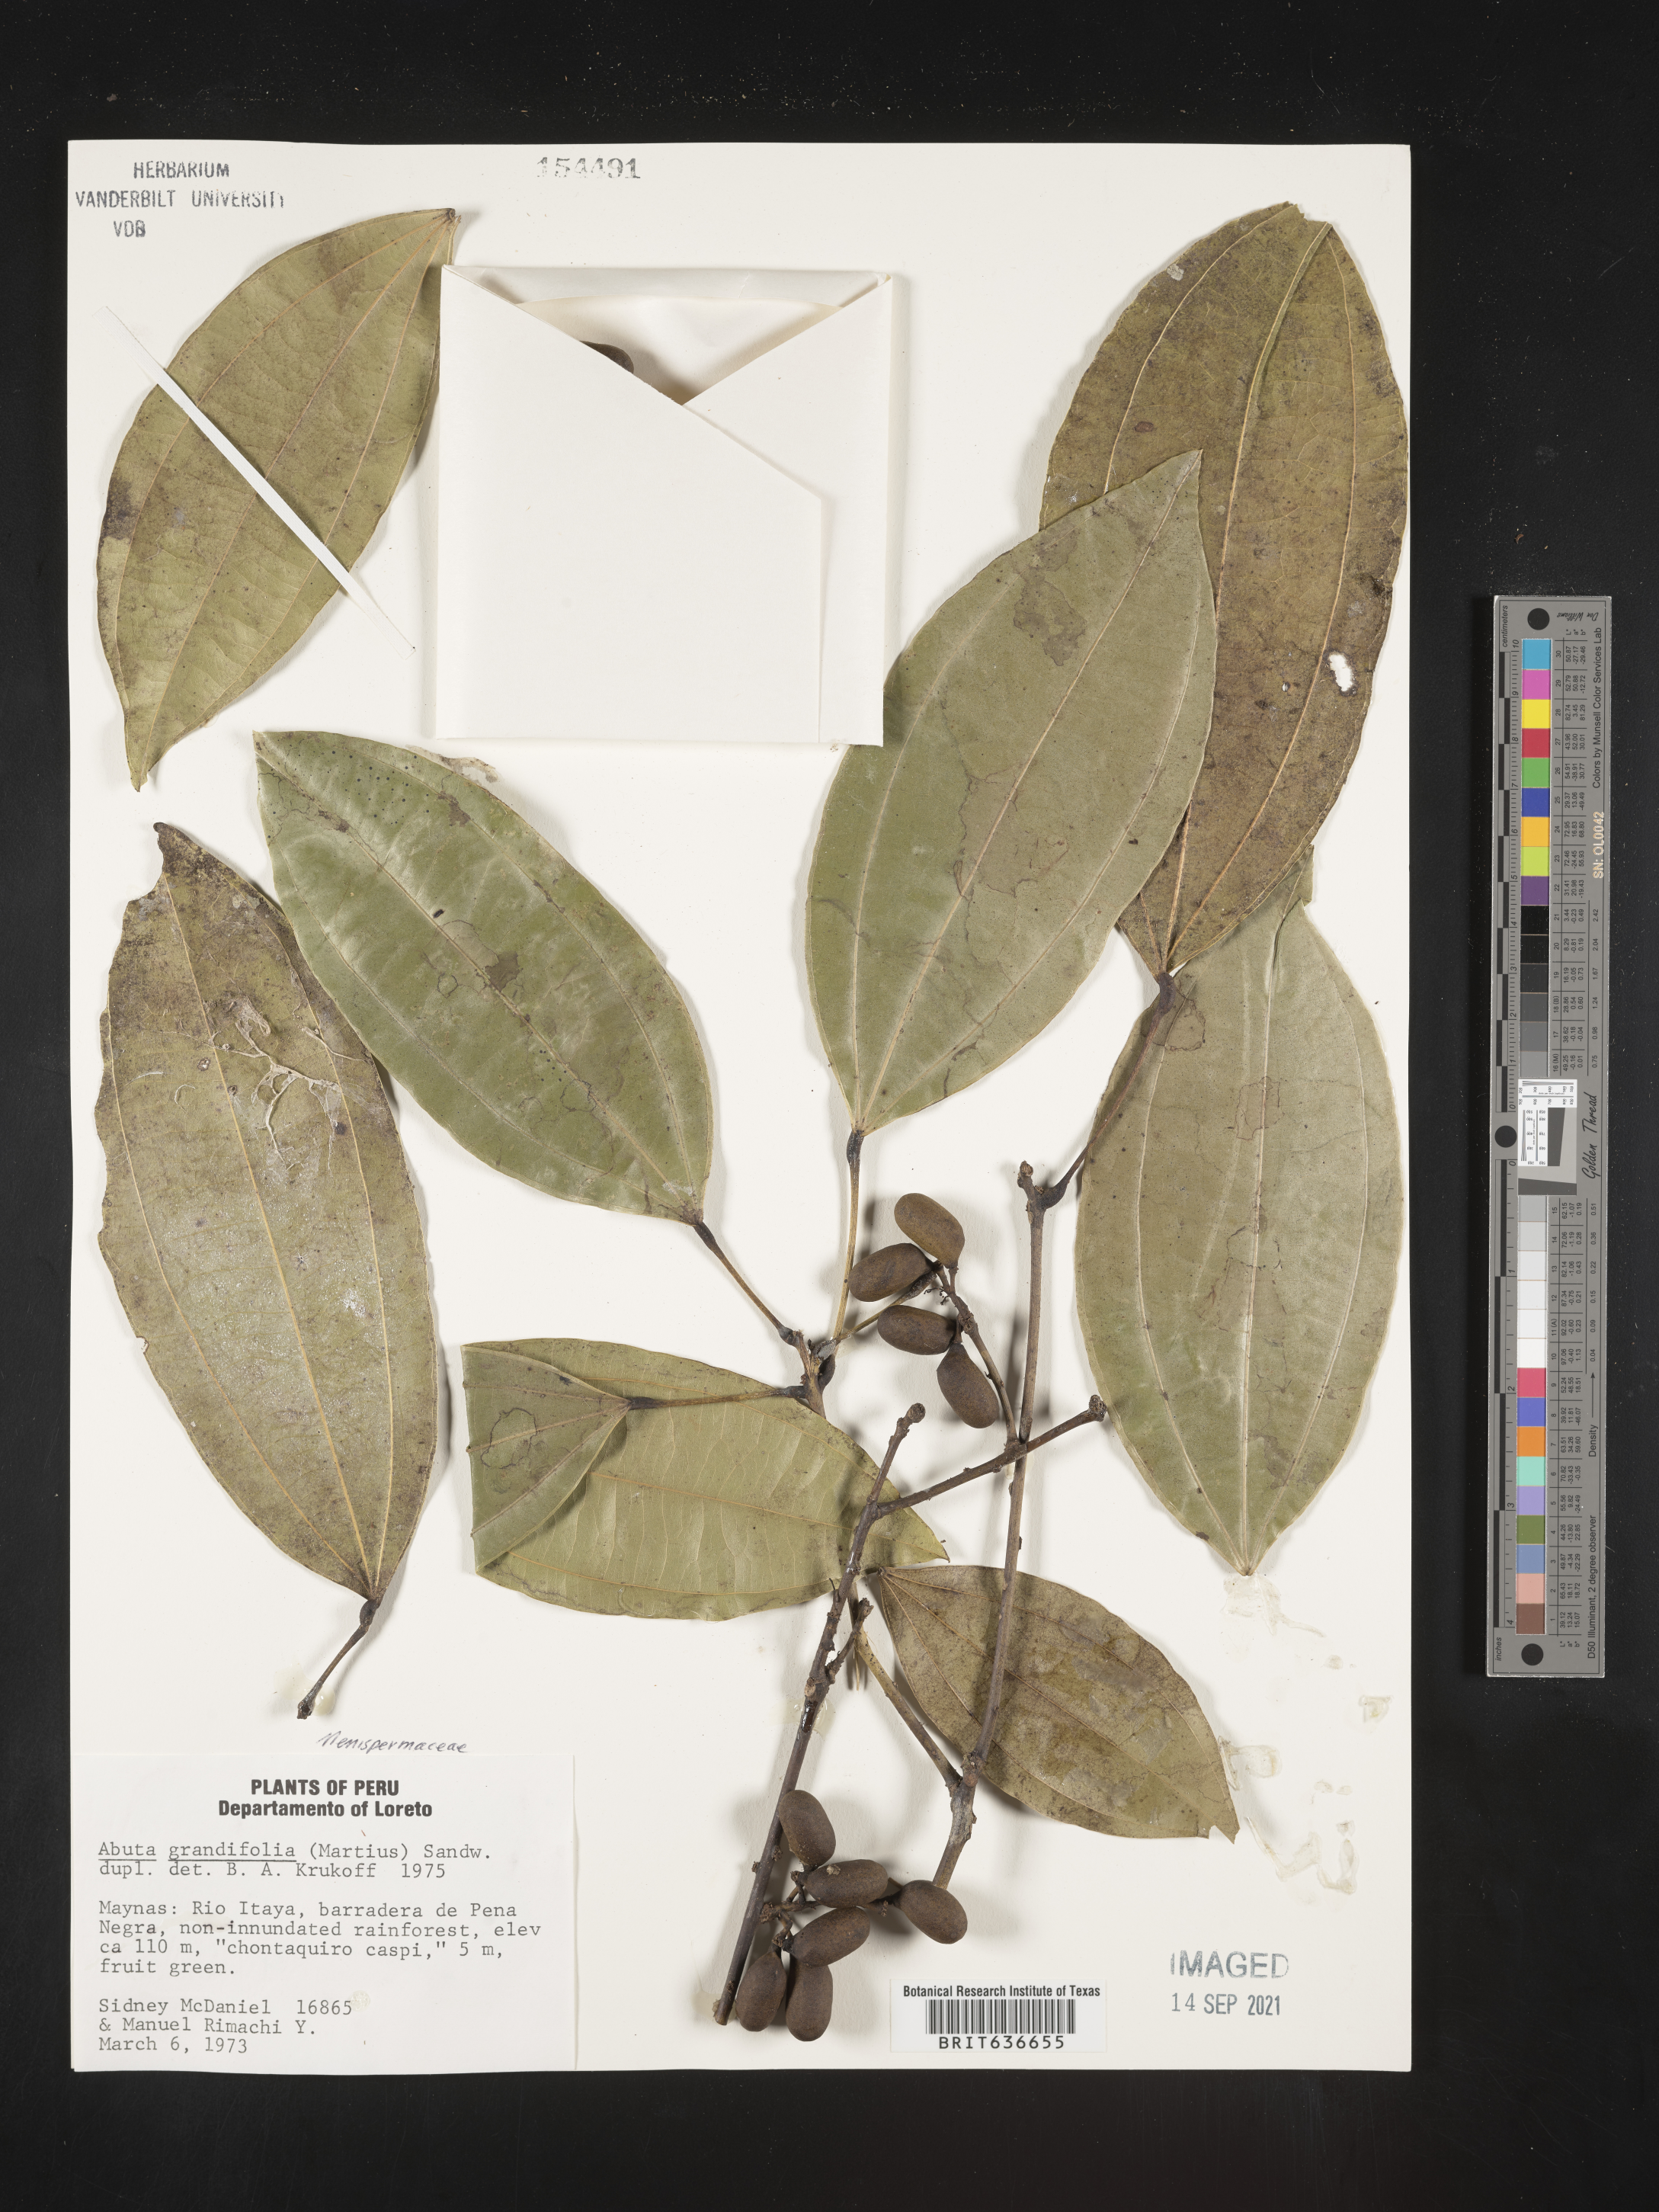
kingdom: Plantae
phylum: Tracheophyta
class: Magnoliopsida
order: Ranunculales
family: Menispermaceae
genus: Abuta
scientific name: Abuta
